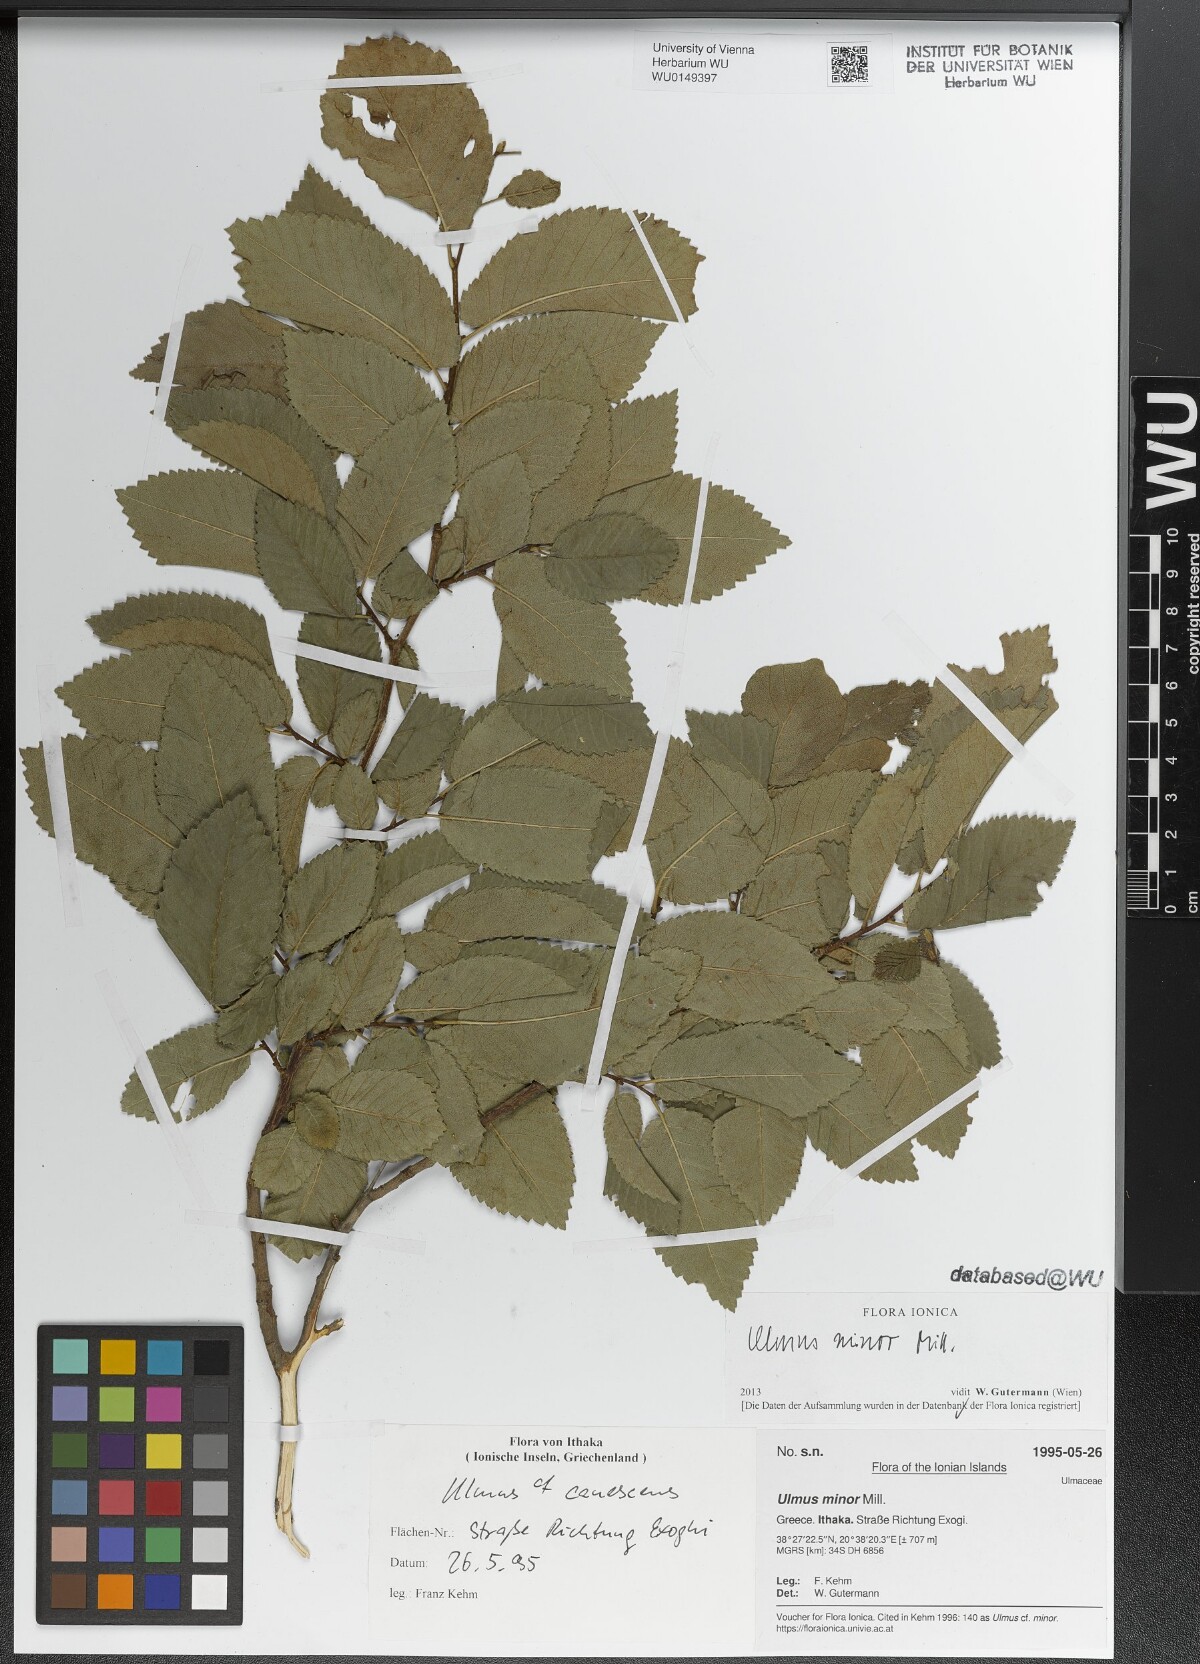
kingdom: Plantae
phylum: Tracheophyta
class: Magnoliopsida
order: Rosales
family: Ulmaceae
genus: Ulmus
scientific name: Ulmus minor
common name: Small-leaved elm
